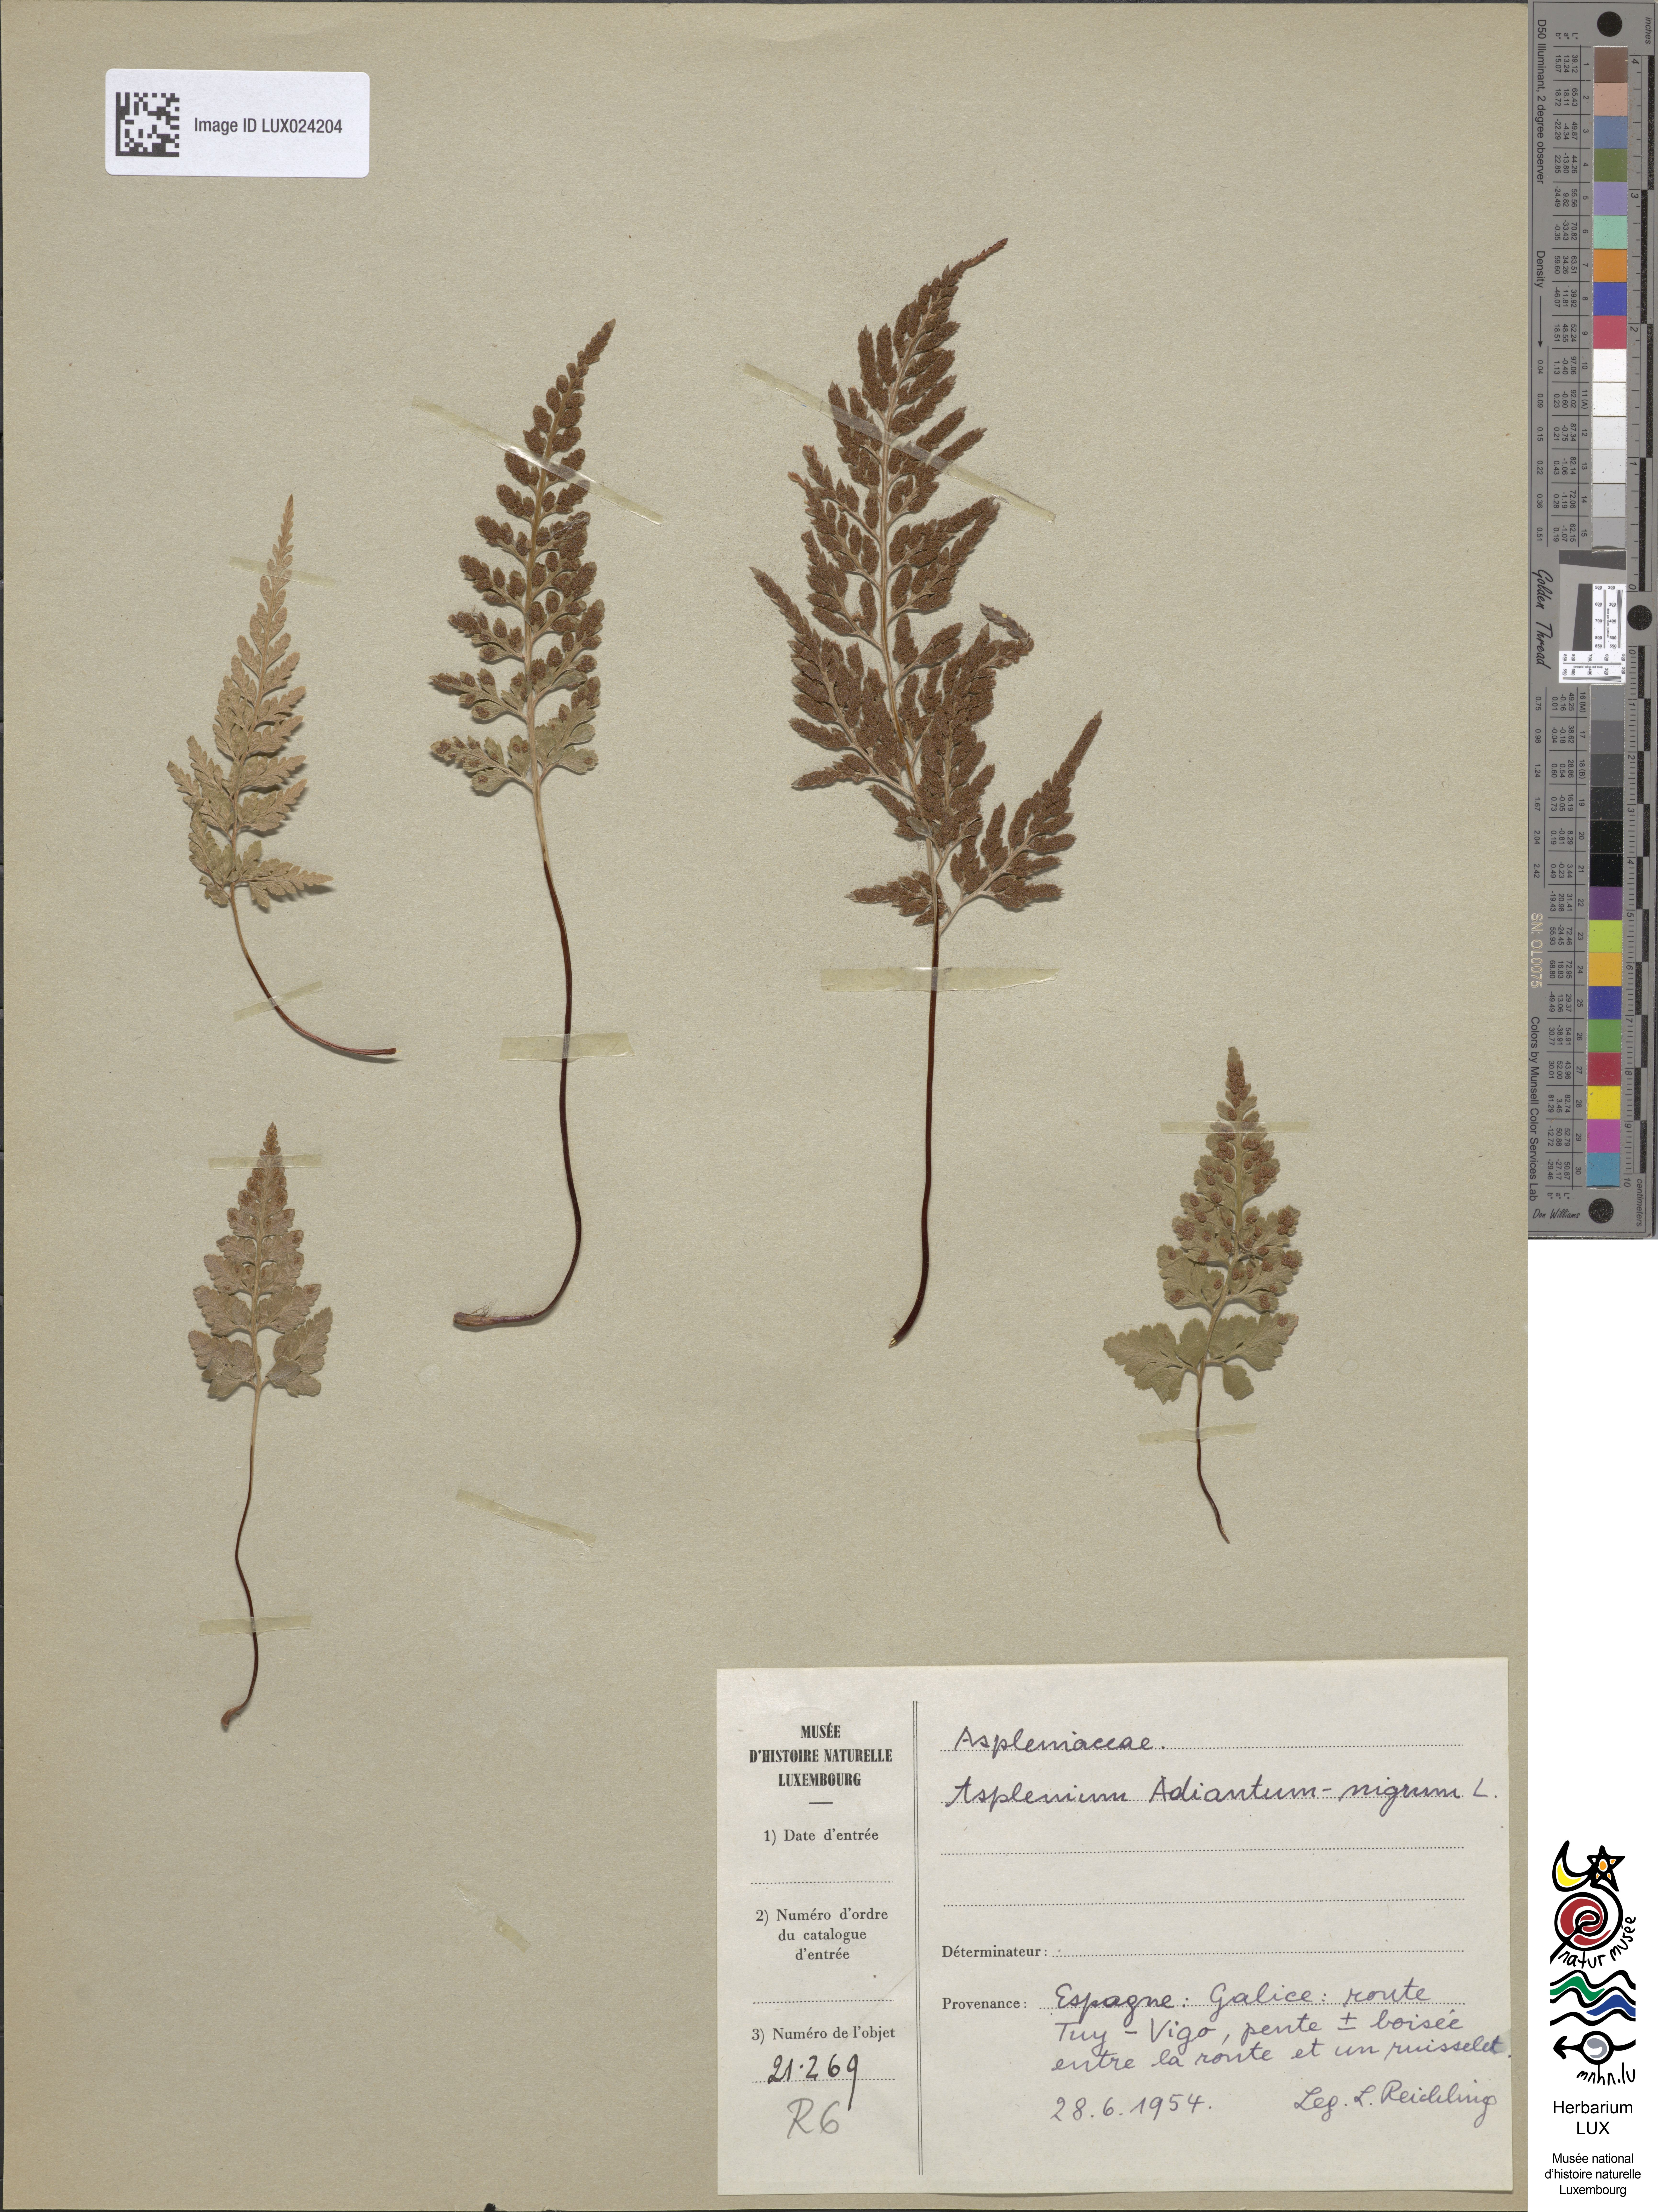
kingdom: Plantae
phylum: Tracheophyta
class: Polypodiopsida
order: Polypodiales
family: Aspleniaceae
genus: Asplenium
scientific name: Asplenium adiantum-nigrum
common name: Black spleenwort
